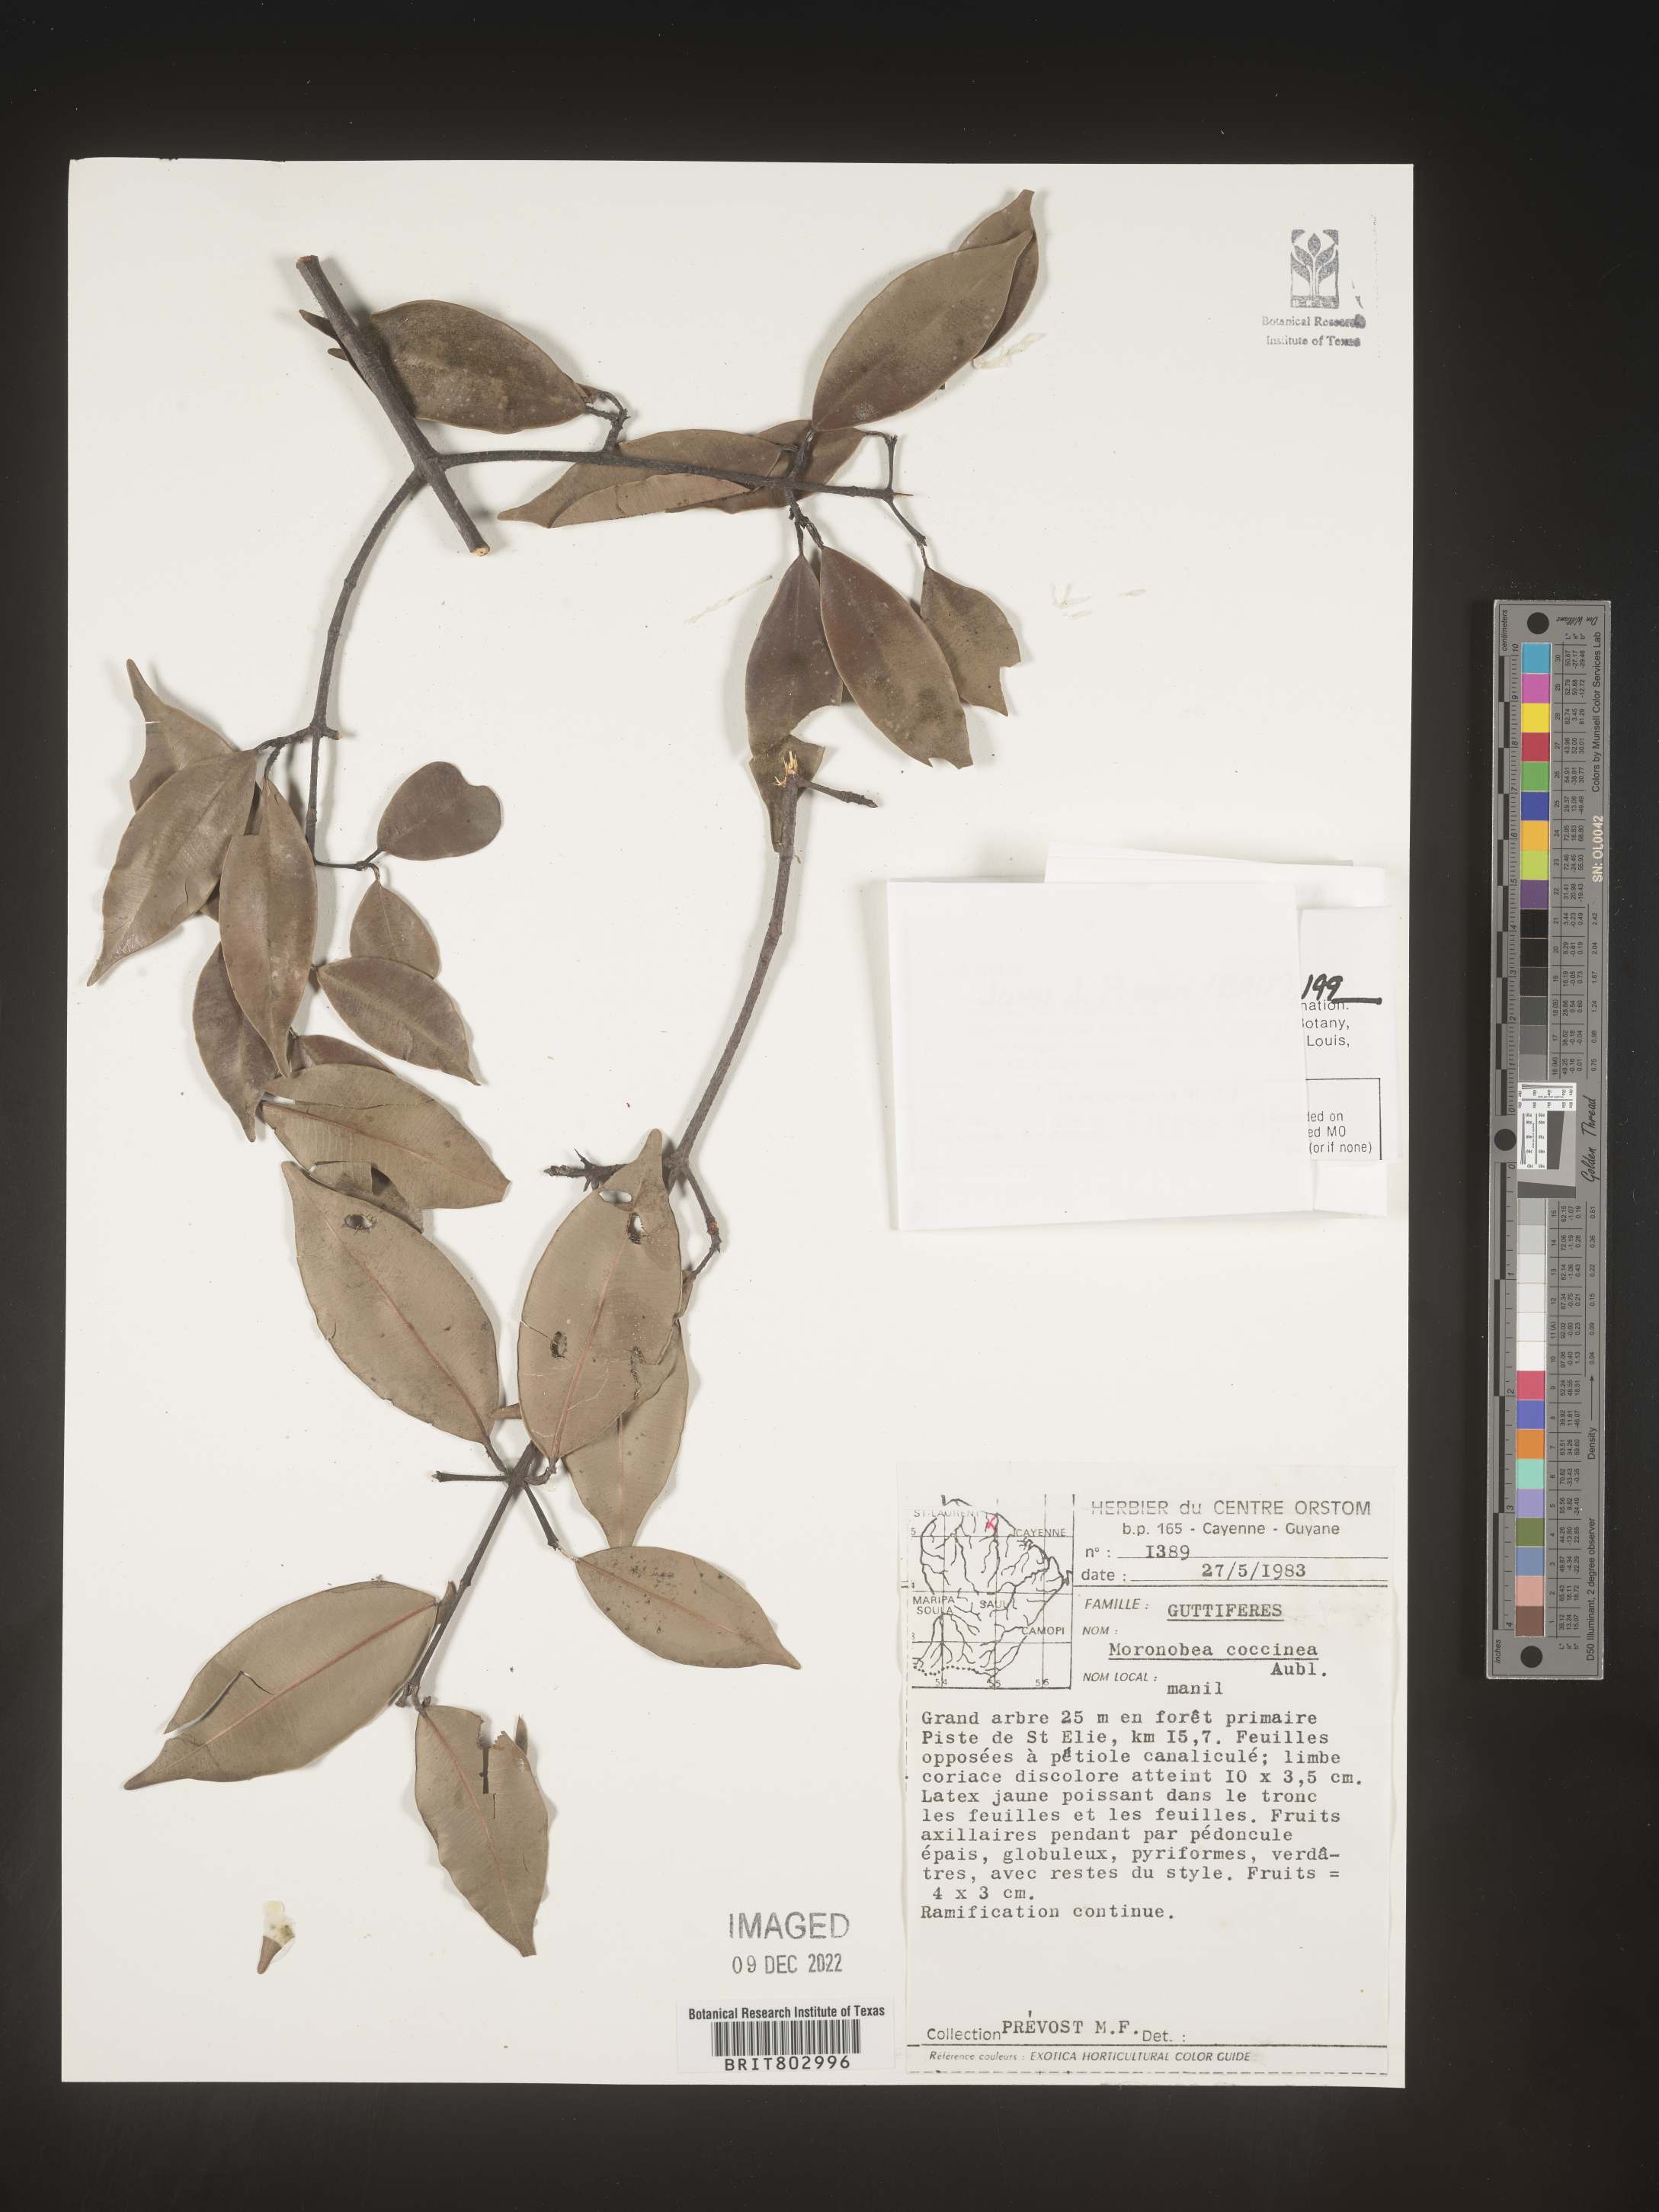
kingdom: Plantae
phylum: Tracheophyta
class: Magnoliopsida
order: Malpighiales
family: Clusiaceae
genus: Moronobea
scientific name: Moronobea
